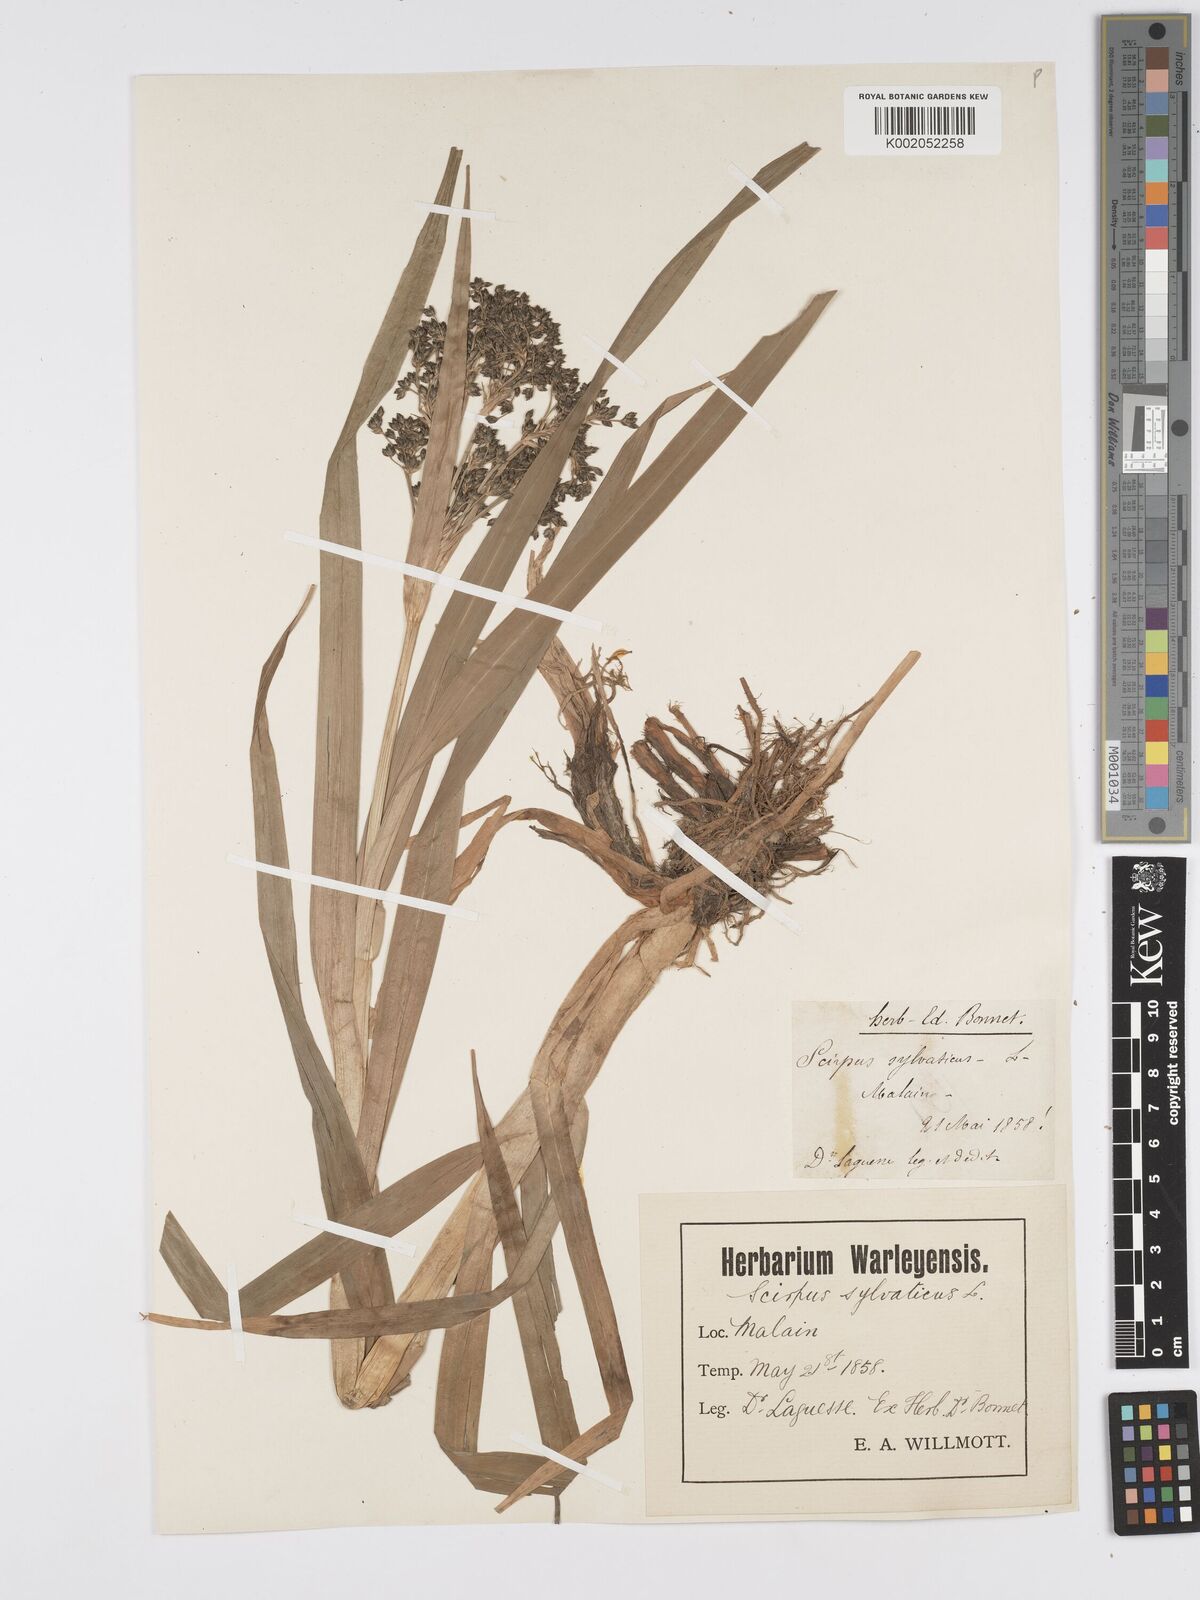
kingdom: Plantae
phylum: Tracheophyta
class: Liliopsida
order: Poales
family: Cyperaceae
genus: Scirpus
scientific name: Scirpus sylvaticus
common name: Wood club-rush
